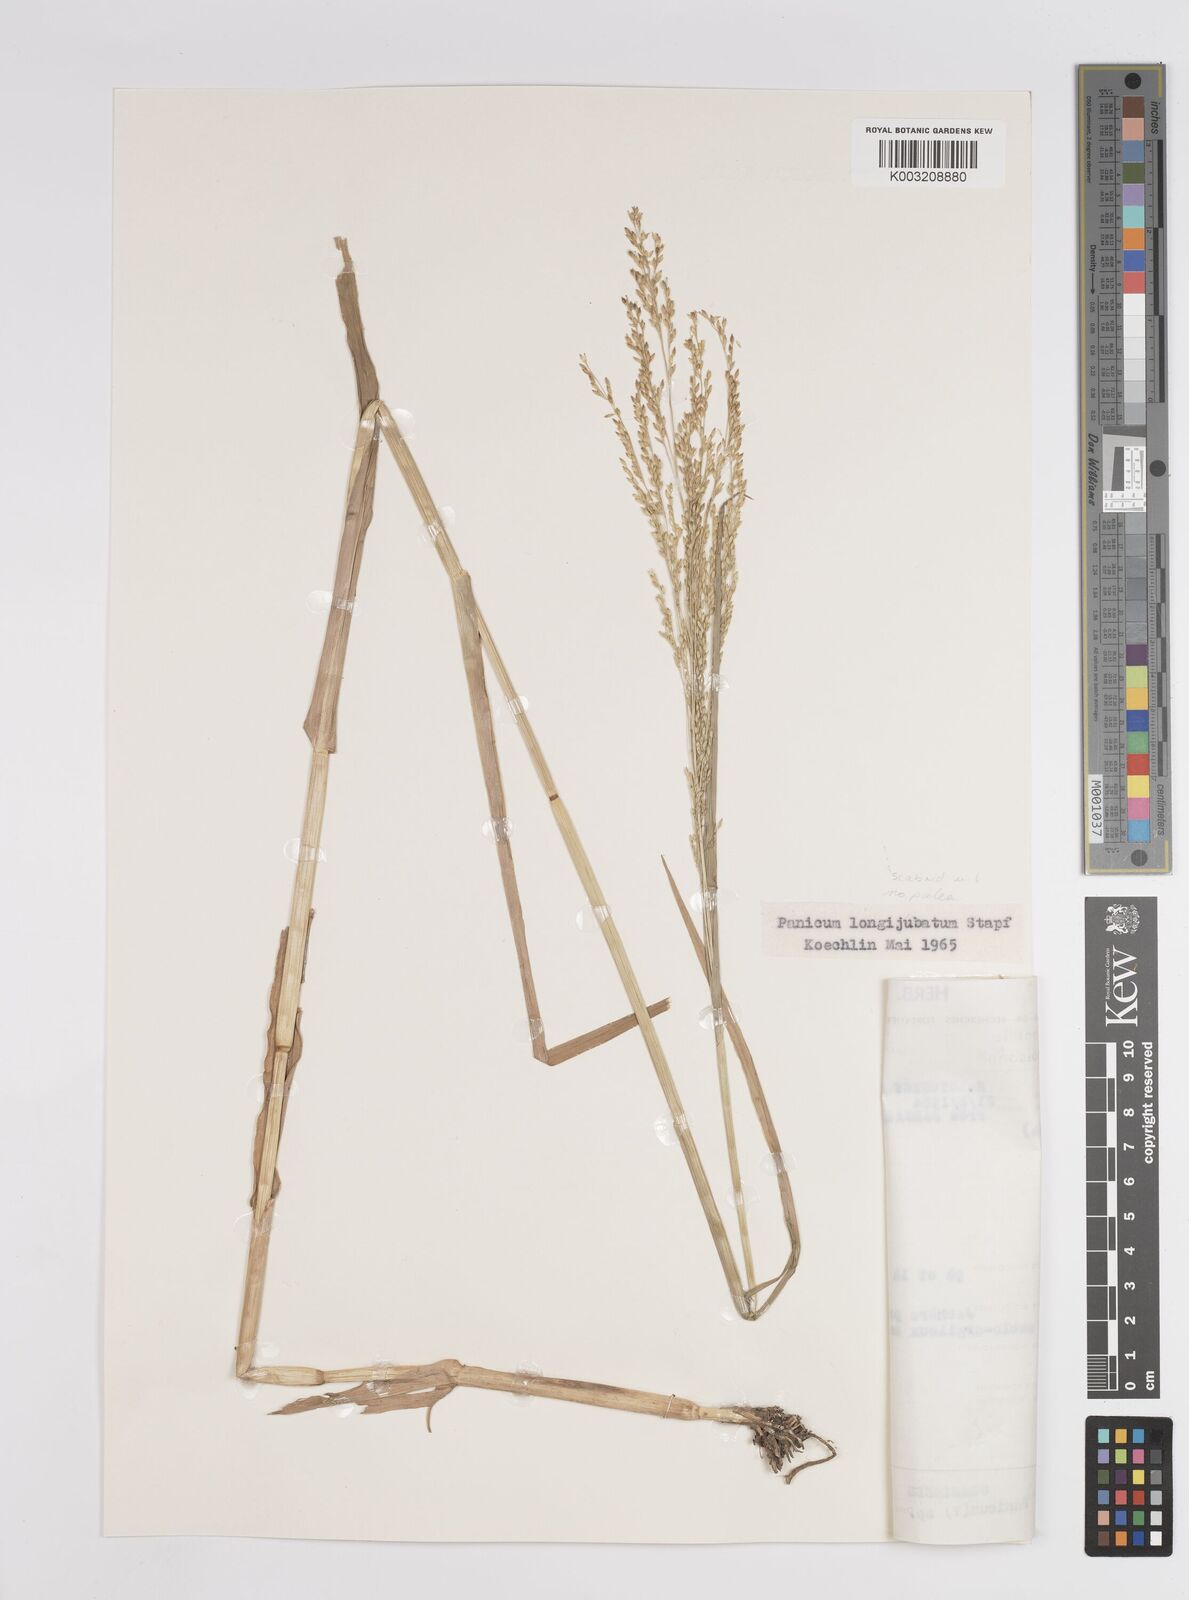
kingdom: Plantae
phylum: Tracheophyta
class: Liliopsida
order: Poales
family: Poaceae
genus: Panicum
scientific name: Panicum subalbidum
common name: Elbow buffalo grass
